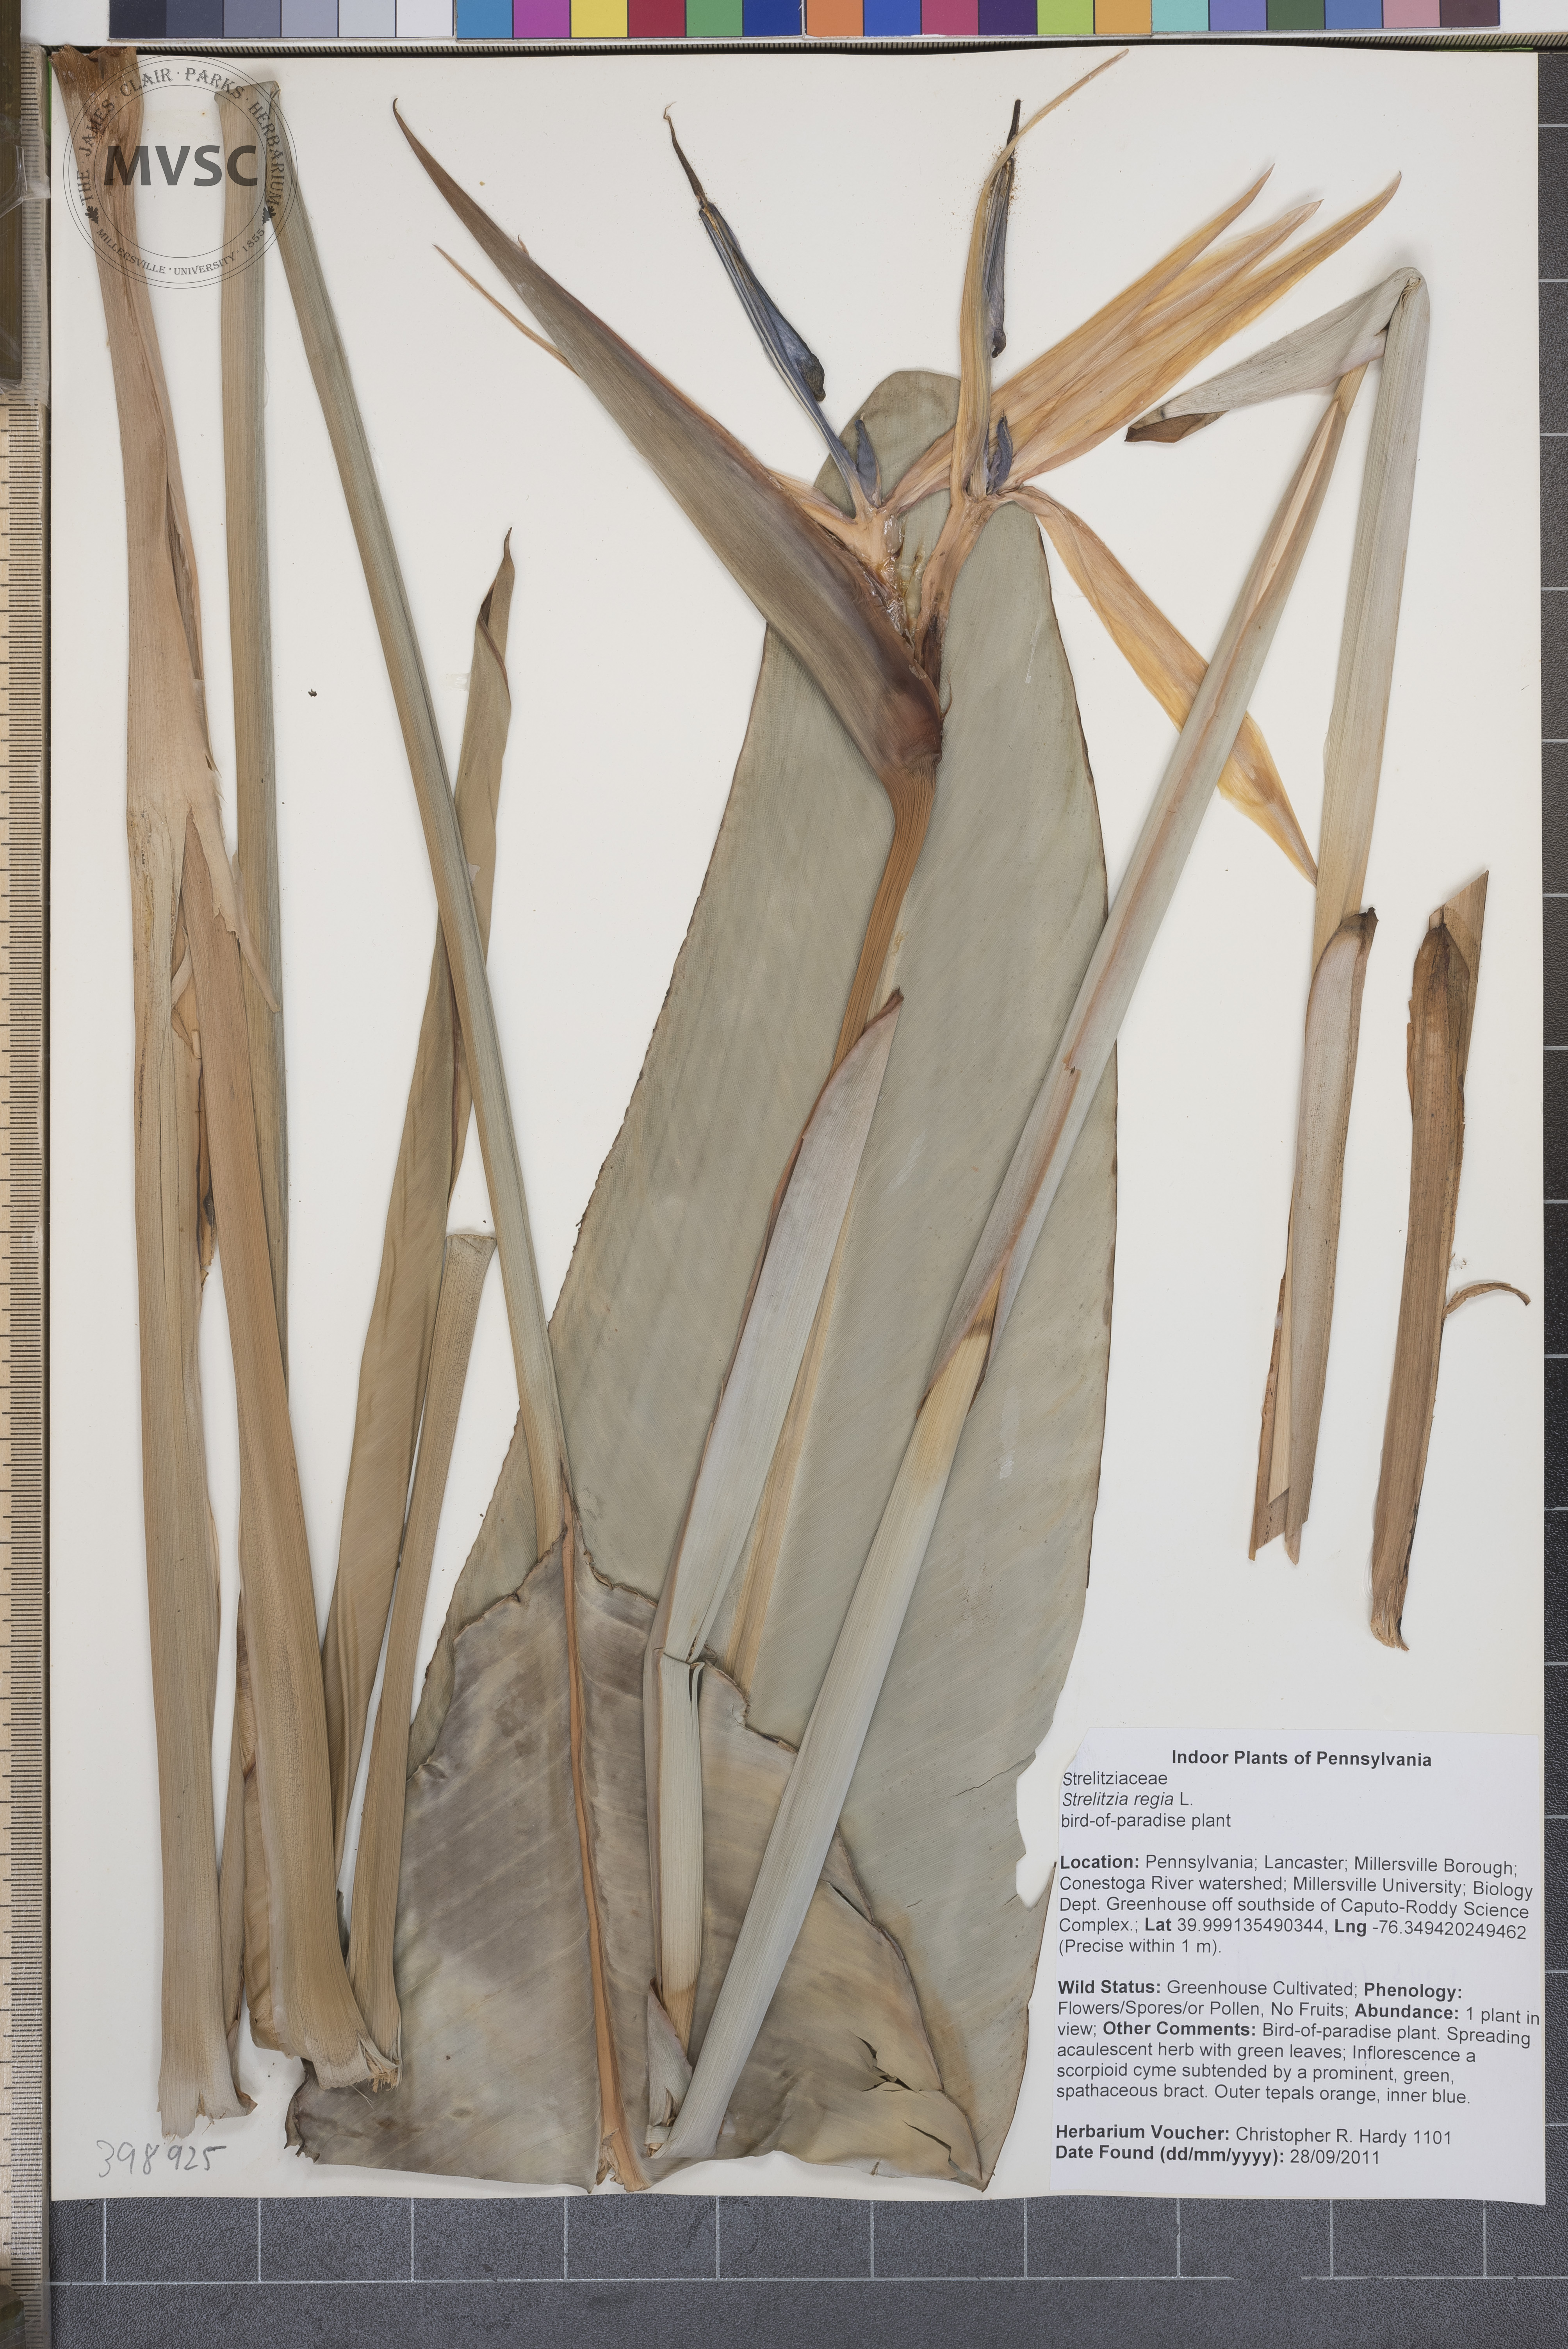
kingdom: Plantae
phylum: Tracheophyta
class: Liliopsida
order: Zingiberales
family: Strelitziaceae
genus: Strelitzia
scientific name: Strelitzia reginae
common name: Bird-of-Paradise
